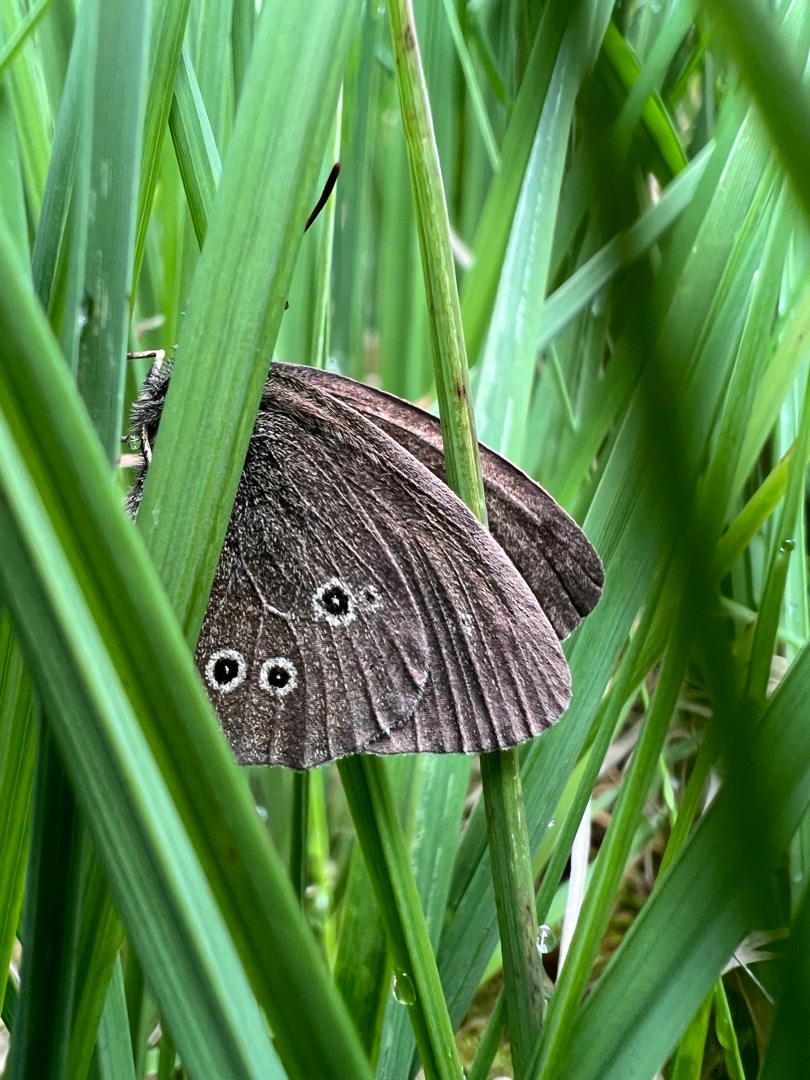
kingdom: Animalia
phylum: Arthropoda
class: Insecta
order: Lepidoptera
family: Nymphalidae
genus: Aphantopus
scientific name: Aphantopus hyperantus
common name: Engrandøje
